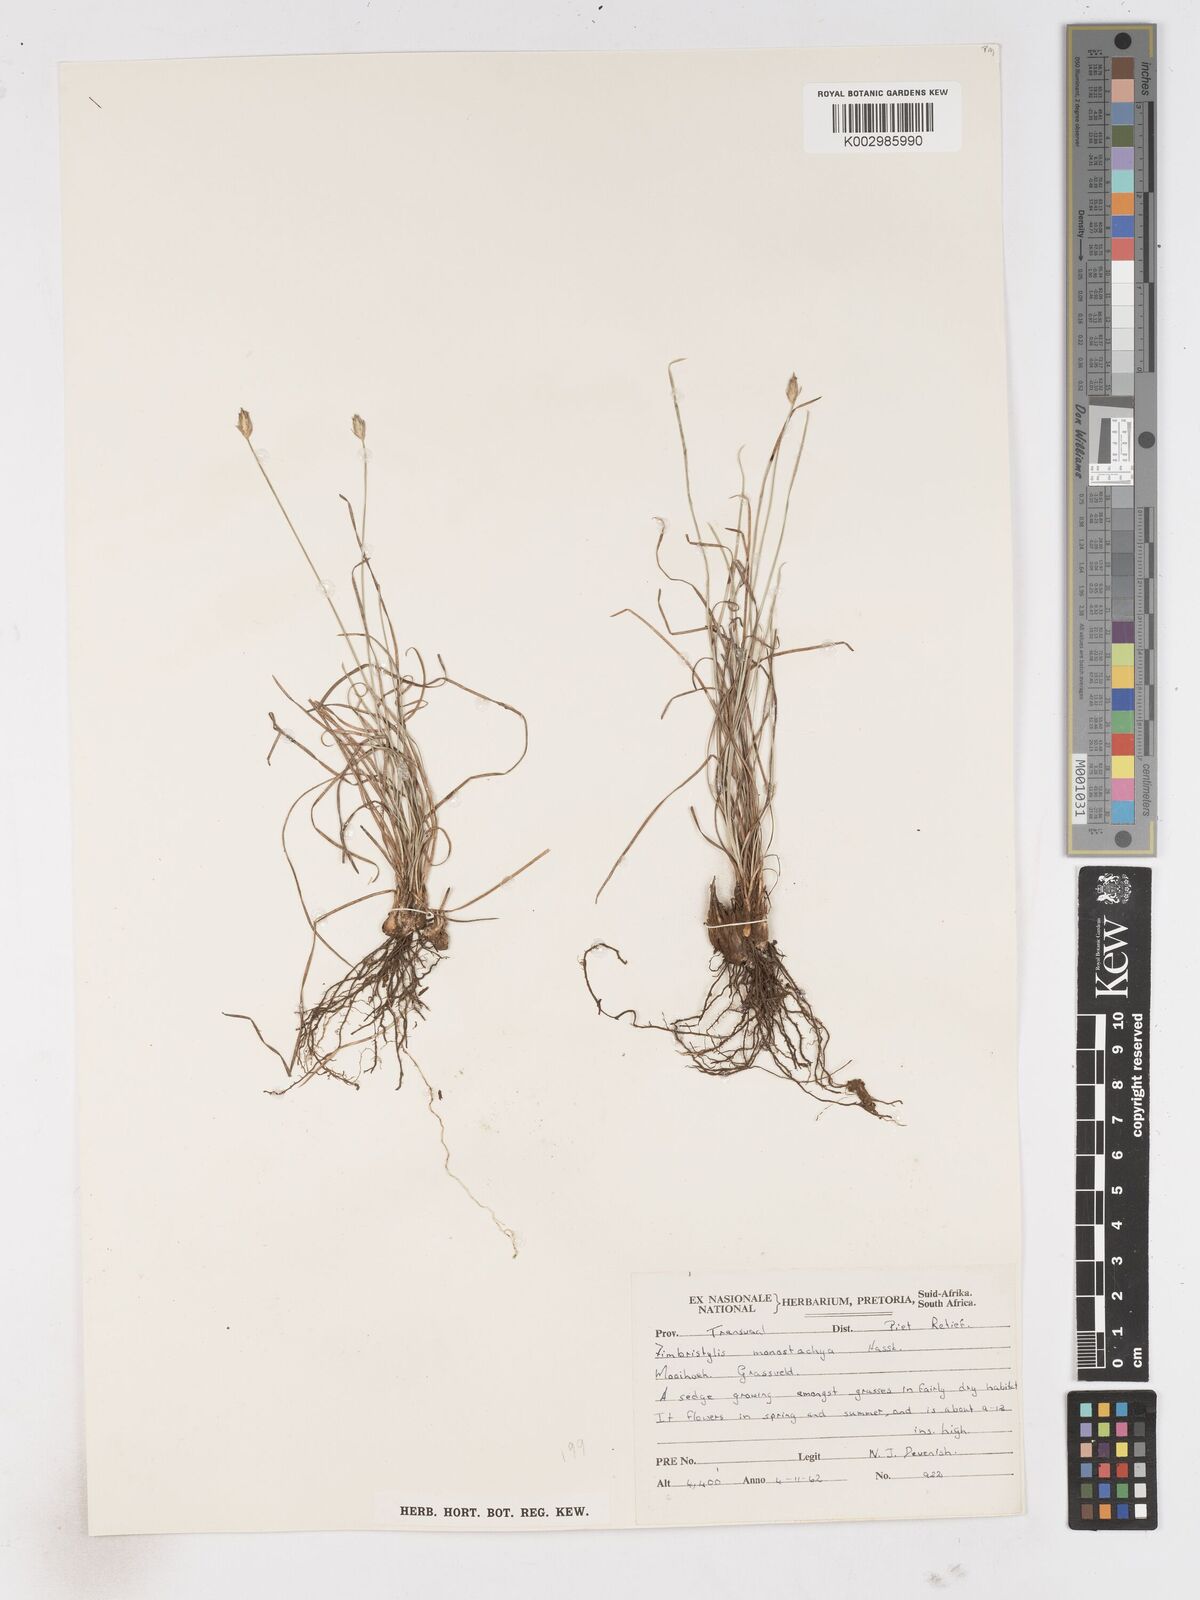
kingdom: Plantae
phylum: Tracheophyta
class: Liliopsida
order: Poales
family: Cyperaceae
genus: Abildgaardia
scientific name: Abildgaardia ovata
